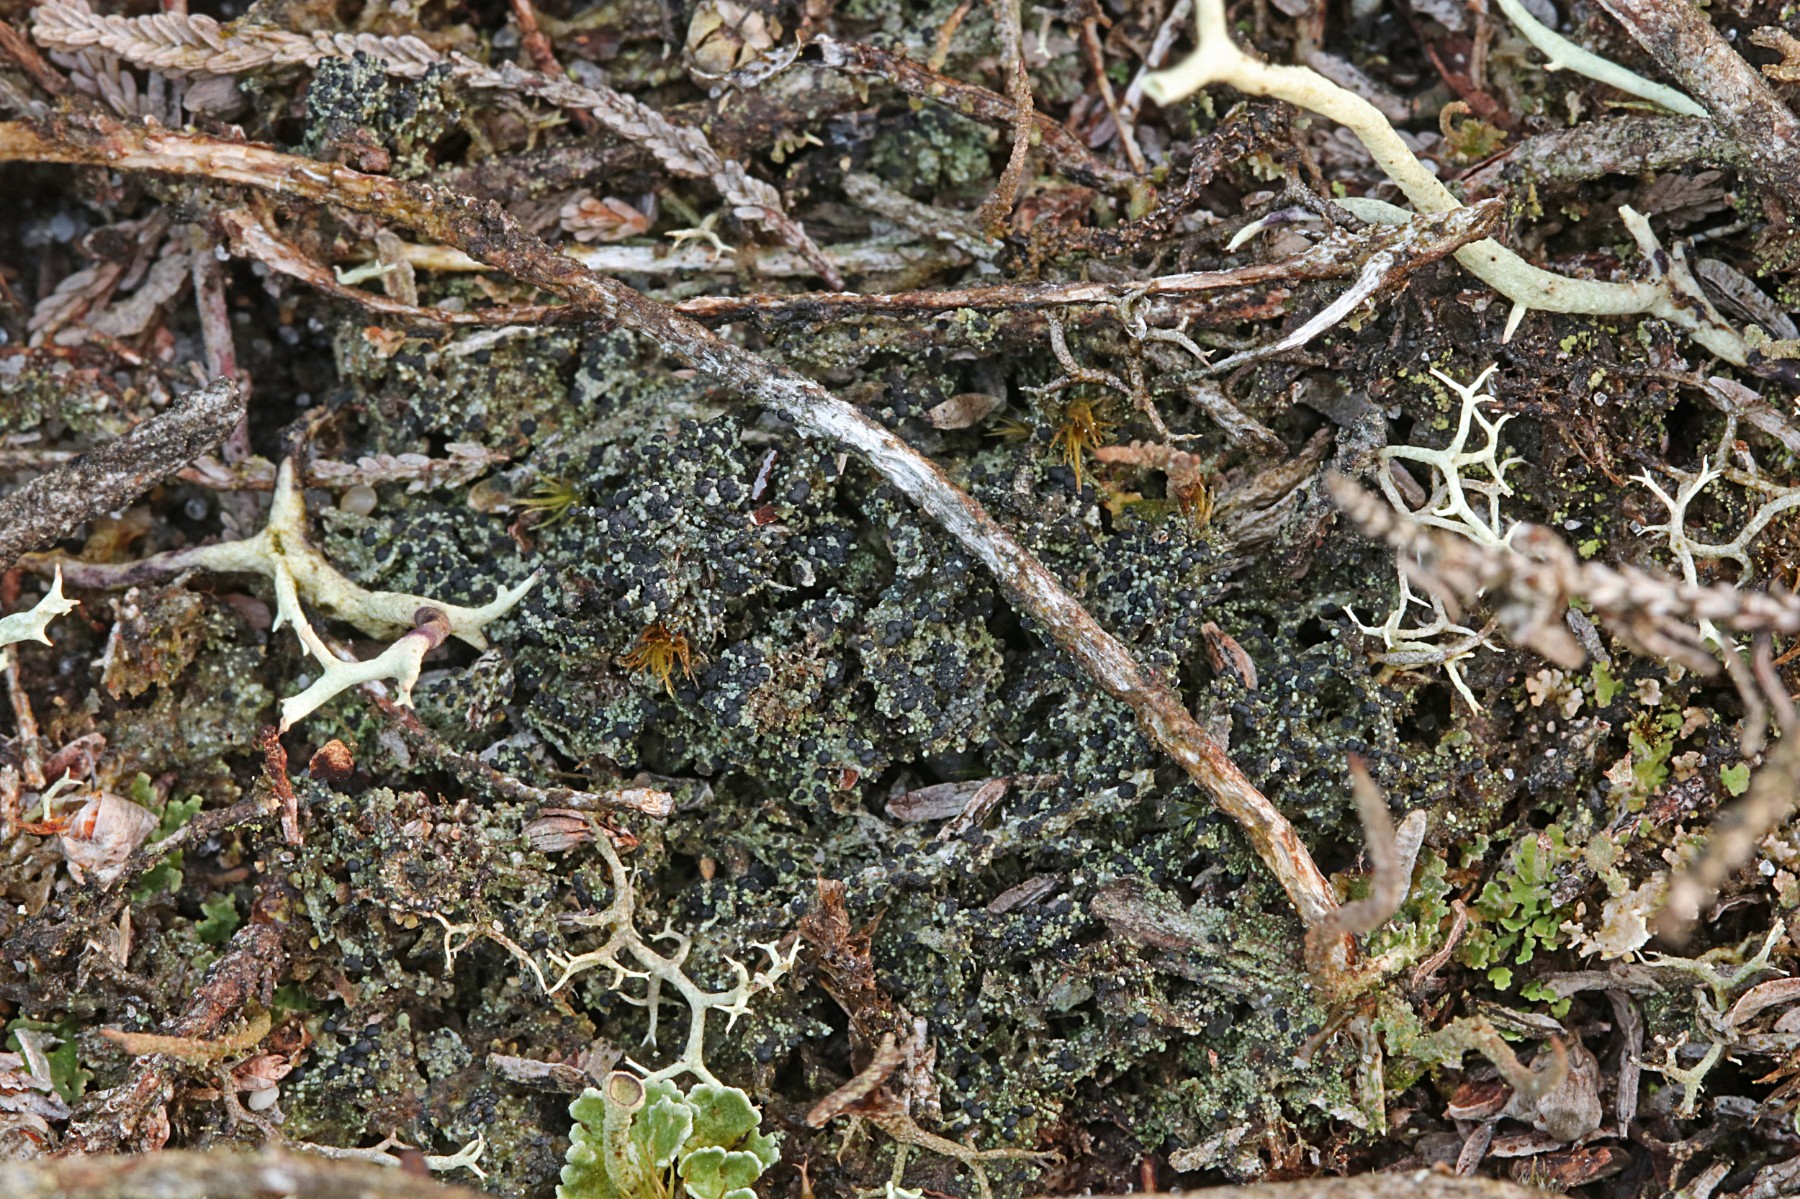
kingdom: Fungi
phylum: Ascomycota
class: Lecanoromycetes
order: Lecanorales
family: Byssolomataceae
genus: Micarea
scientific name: Micarea lignaria
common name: tørve-knaplav
